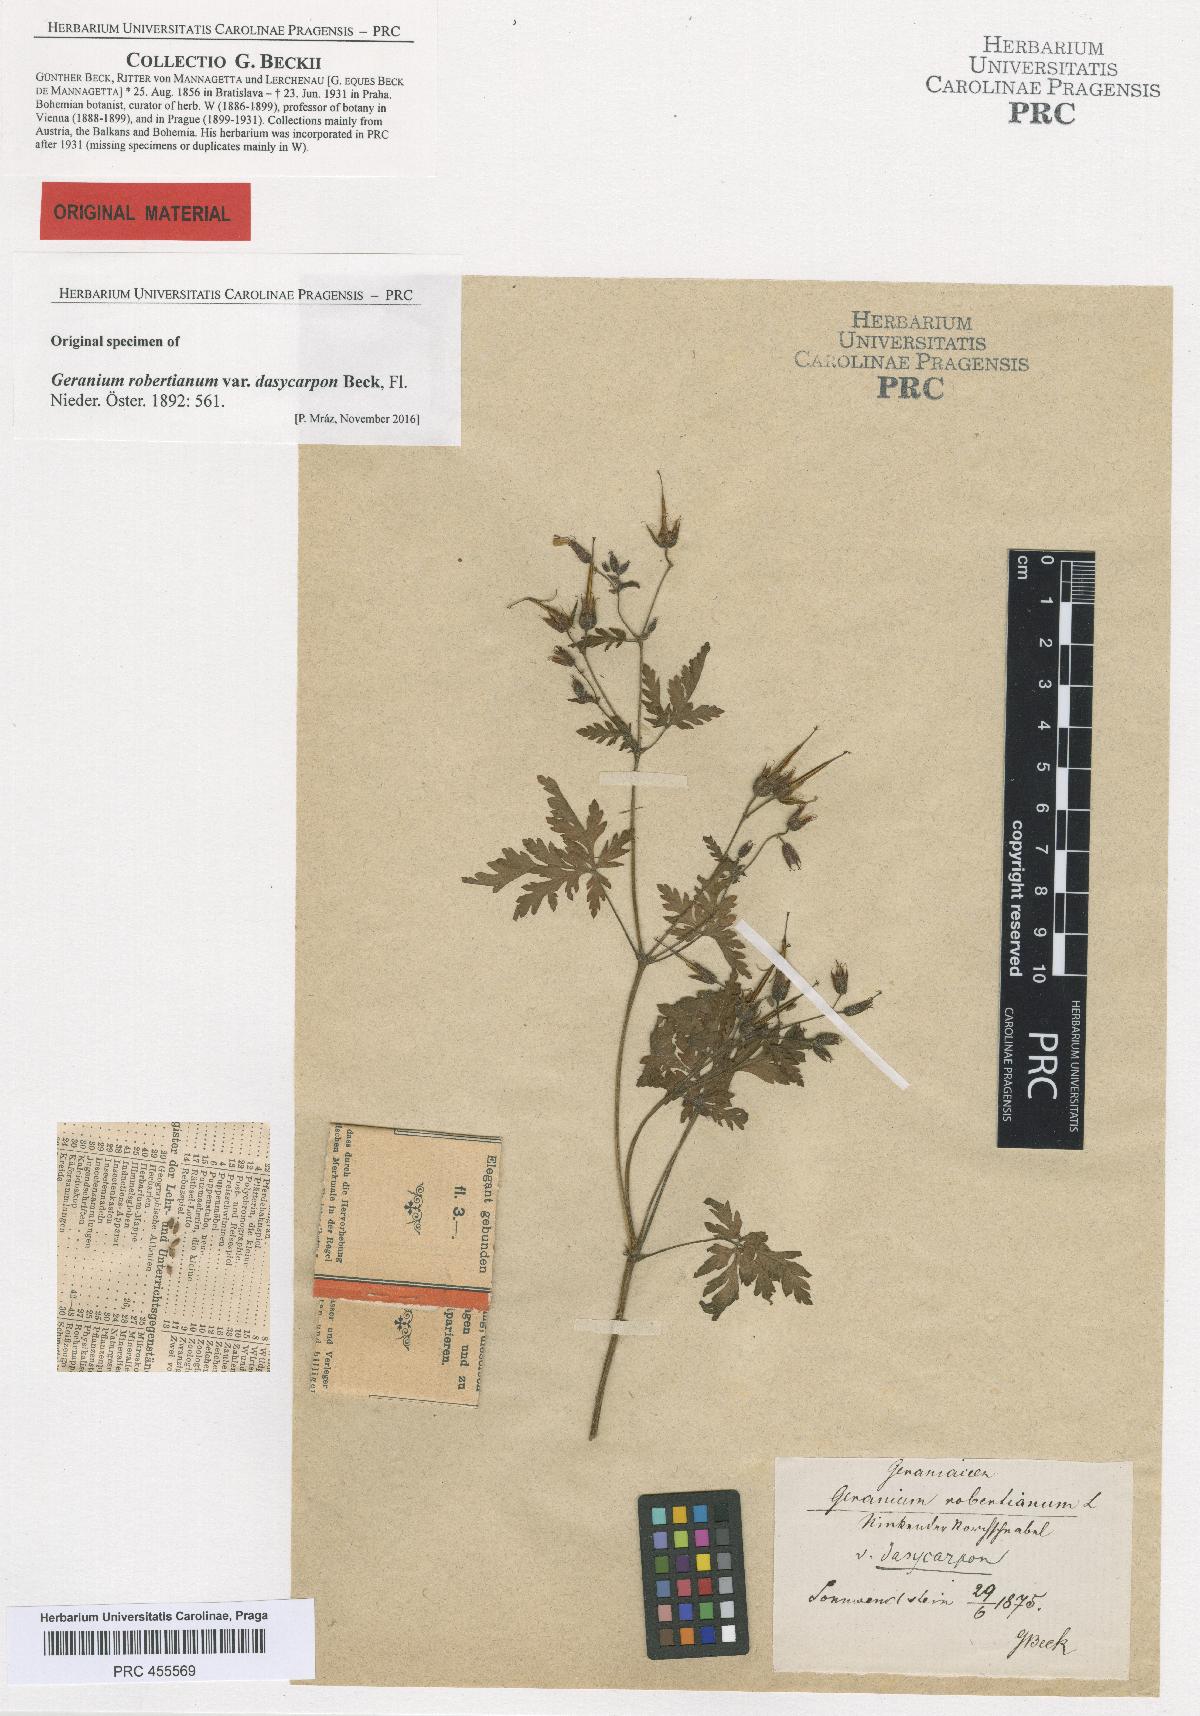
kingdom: Plantae
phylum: Tracheophyta
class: Magnoliopsida
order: Geraniales
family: Geraniaceae
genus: Geranium
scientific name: Geranium robertianum
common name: Herb-robert
